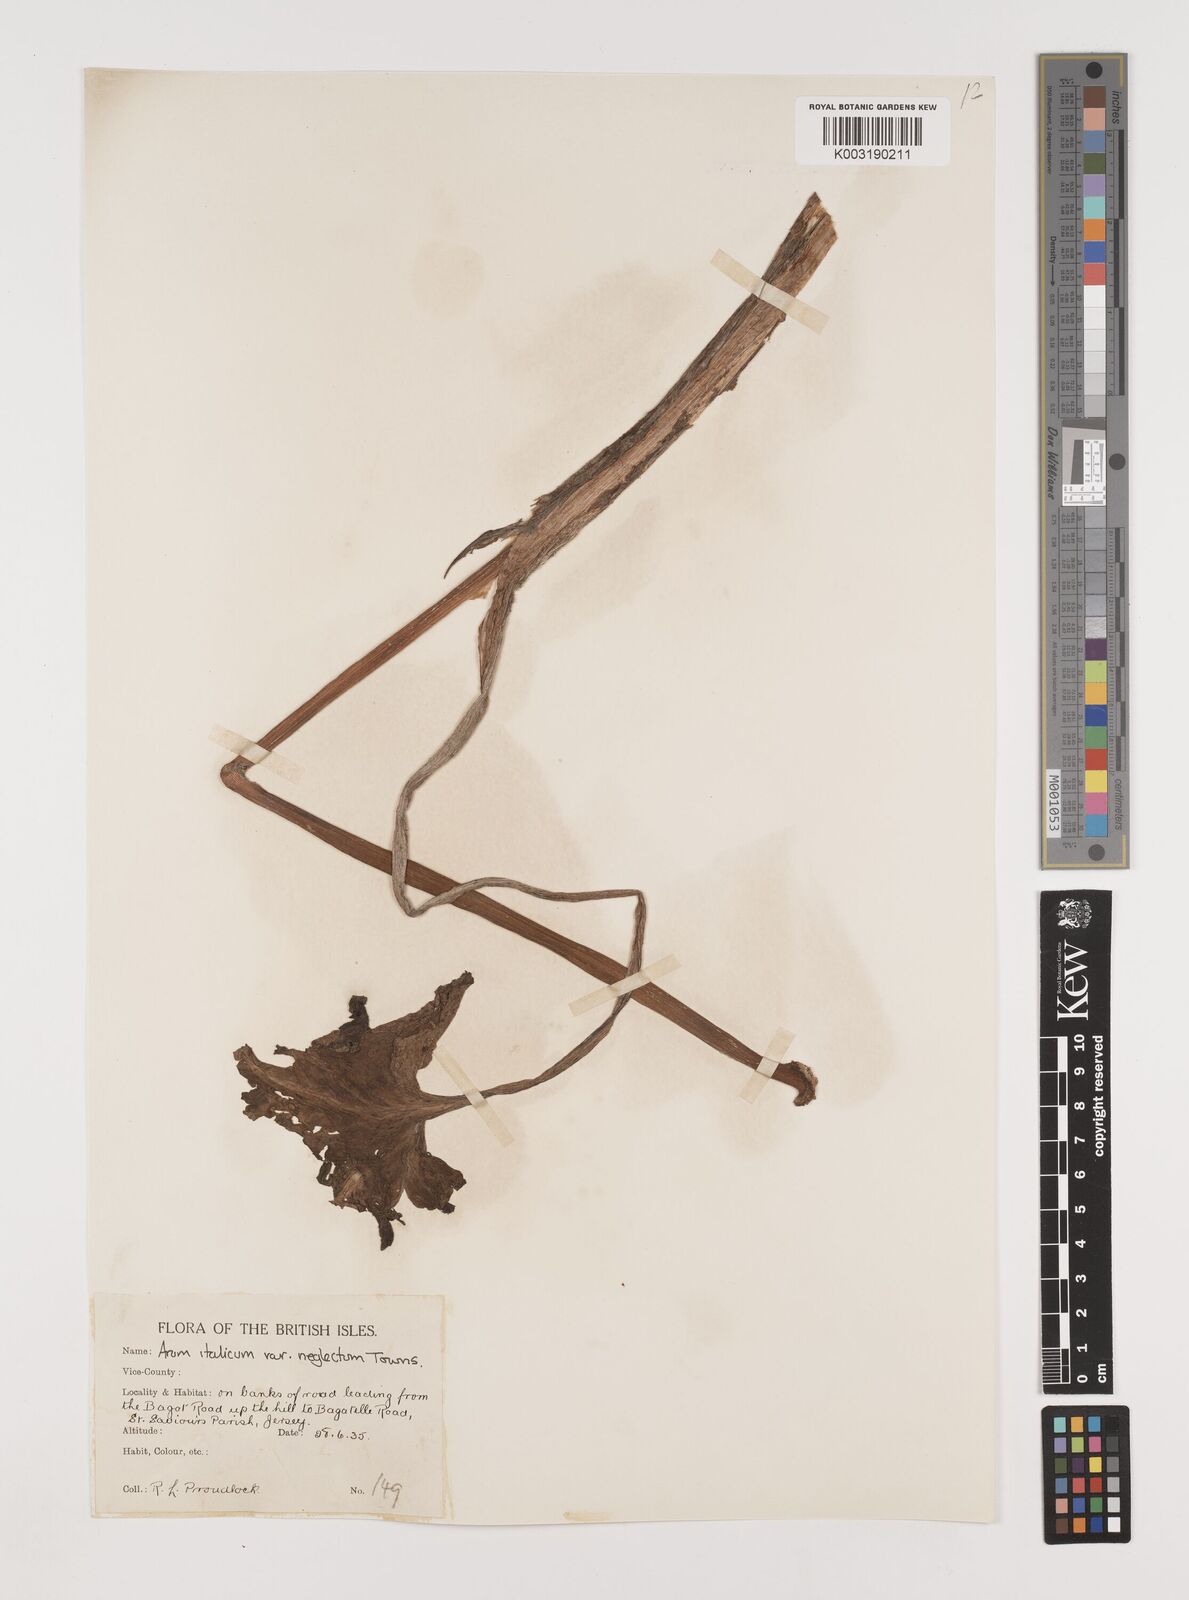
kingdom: Plantae
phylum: Tracheophyta
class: Liliopsida
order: Alismatales
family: Araceae
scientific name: Araceae
